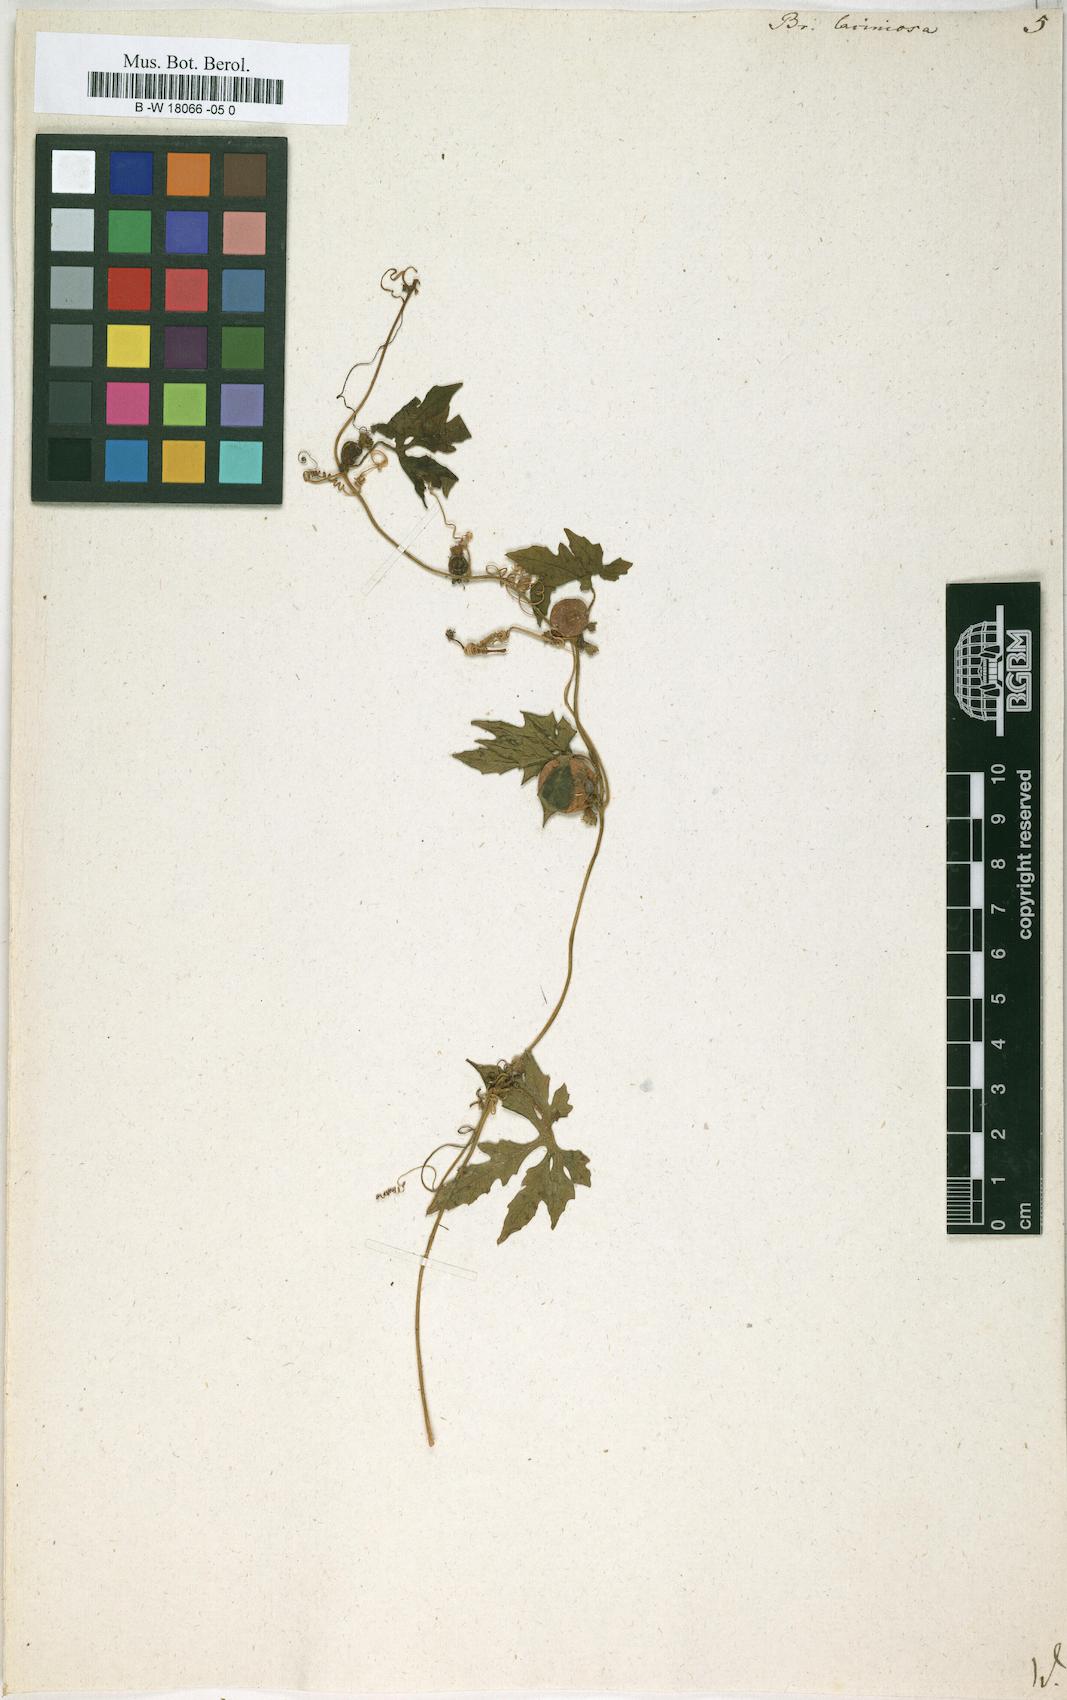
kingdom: Plantae
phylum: Tracheophyta
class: Magnoliopsida
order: Cucurbitales
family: Cucurbitaceae
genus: Diplocyclos
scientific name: Diplocyclos palmatus
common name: Striped-cucumber
